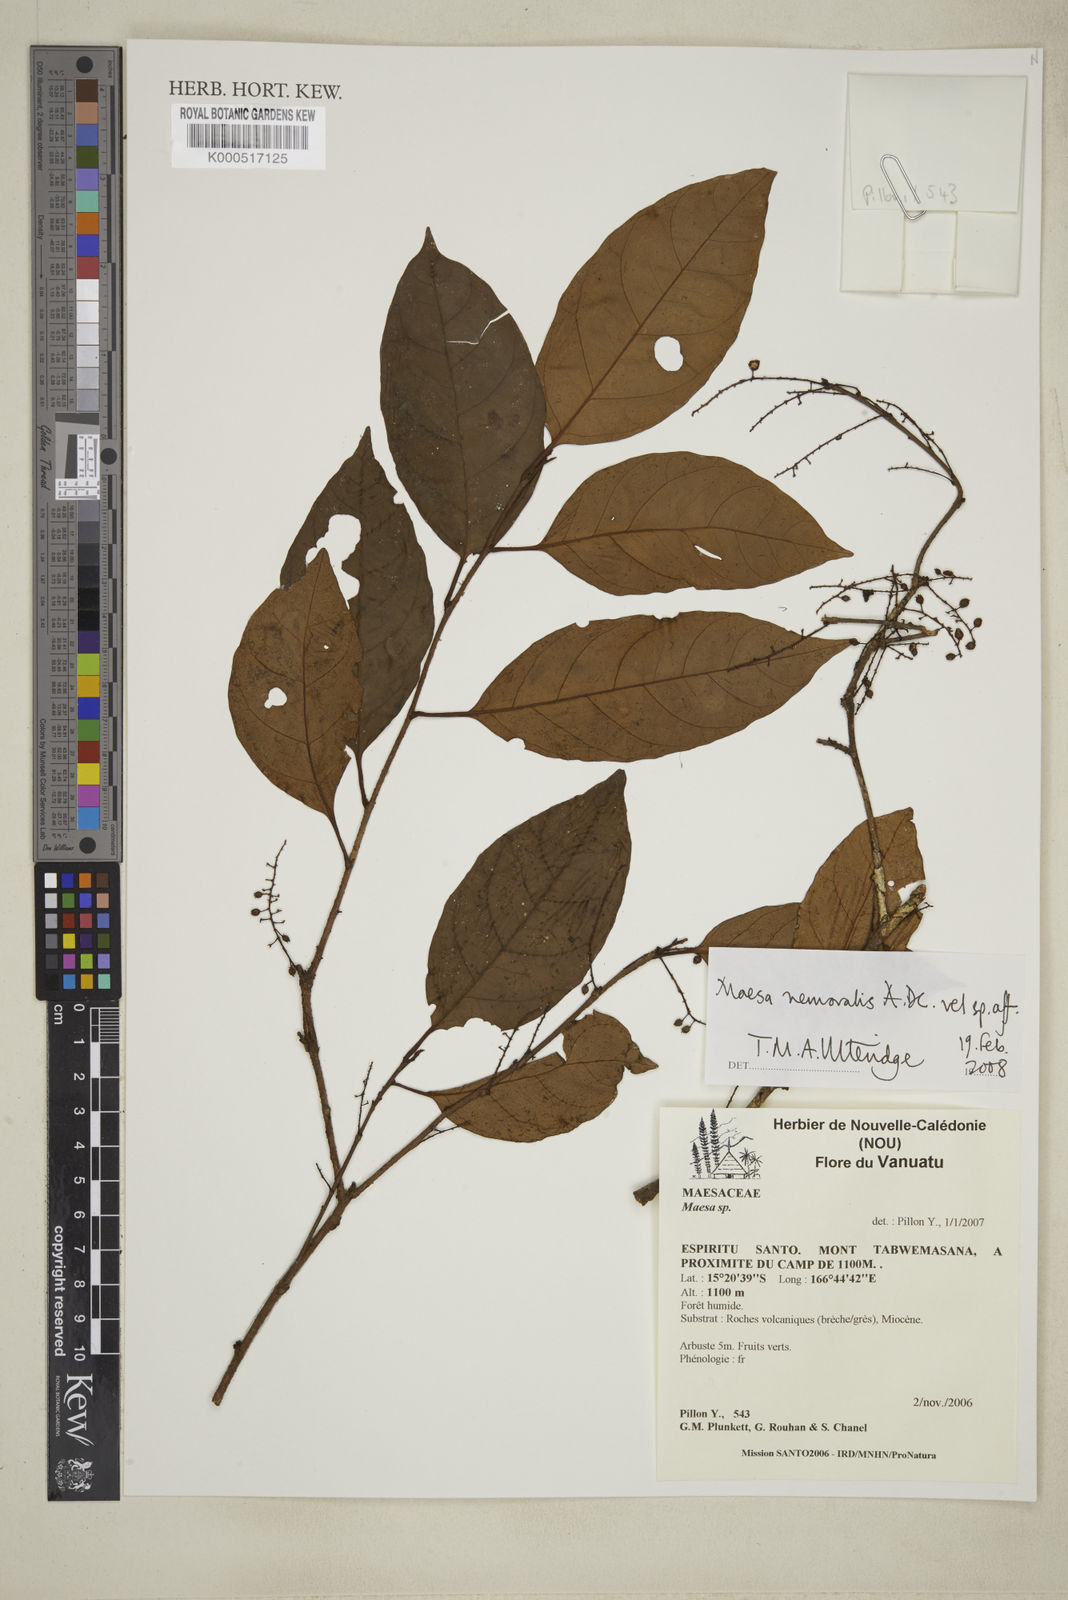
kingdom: Plantae
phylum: Tracheophyta
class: Magnoliopsida
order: Ericales
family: Primulaceae
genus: Maesa
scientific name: Maesa nemoralis
